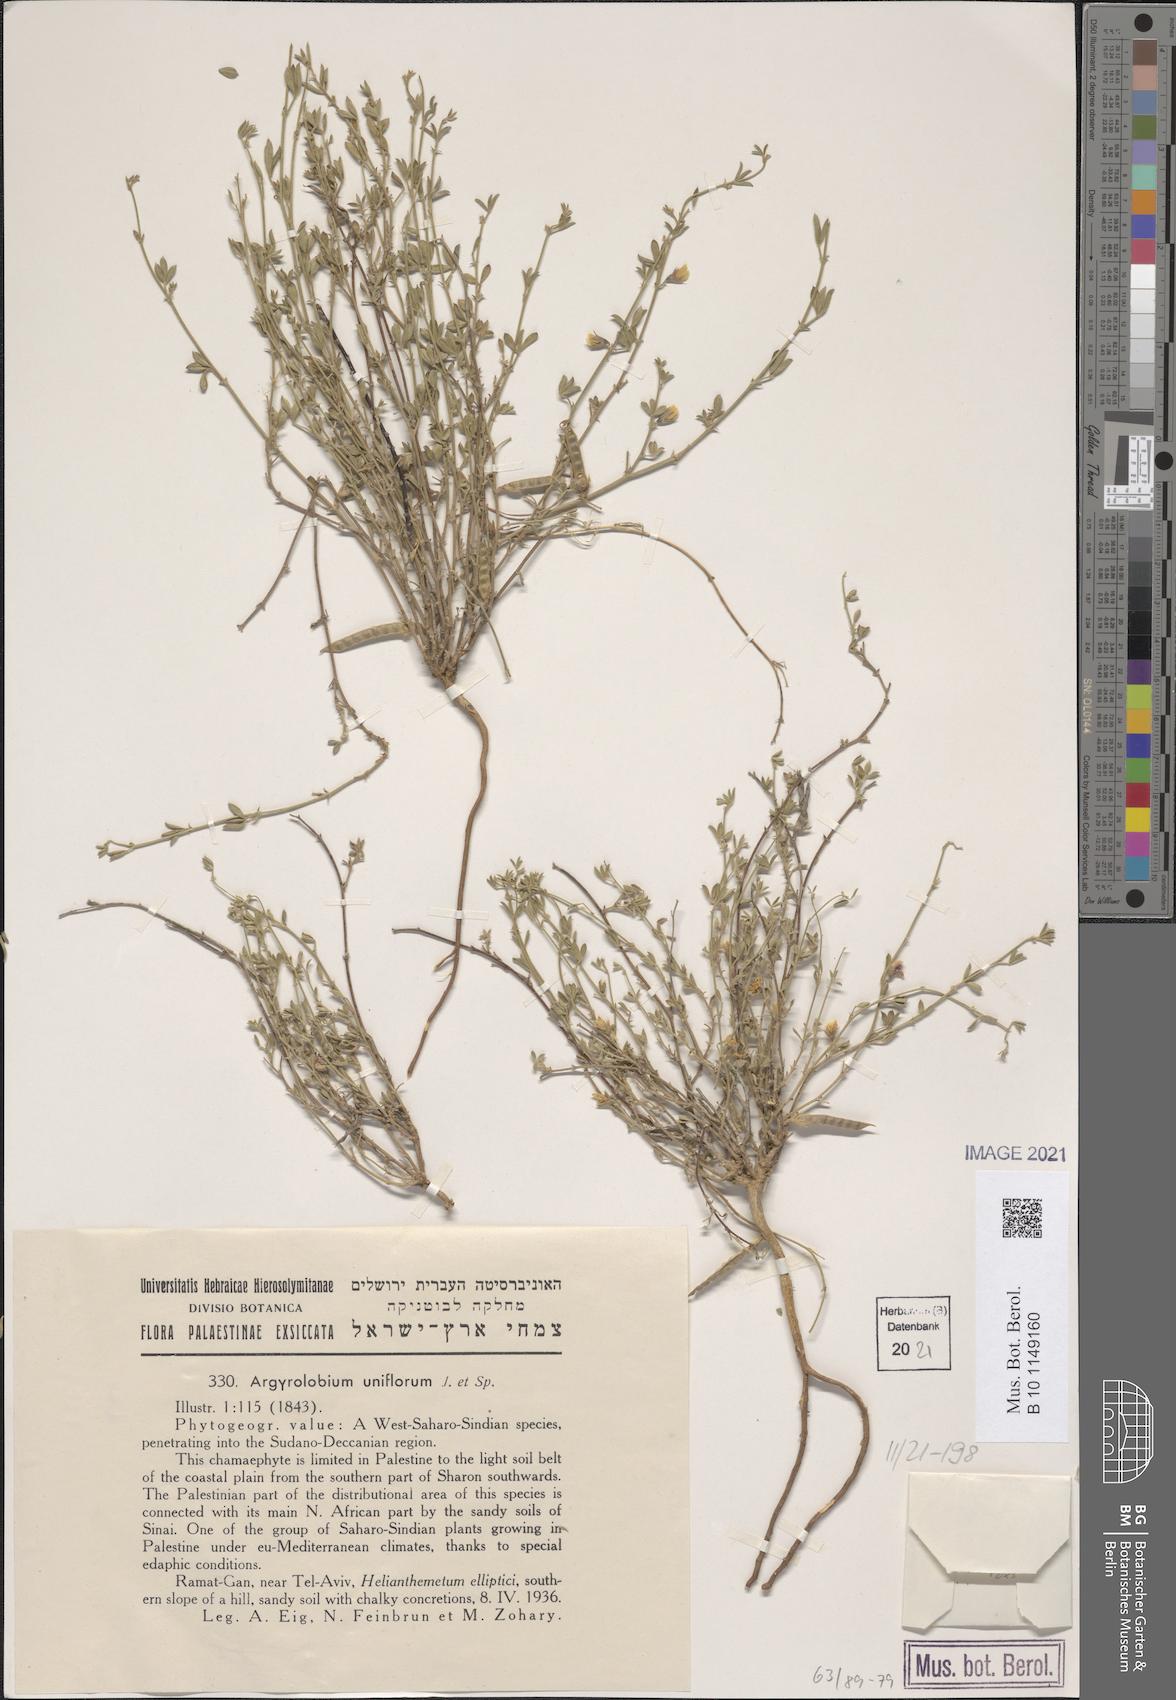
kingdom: Plantae
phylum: Tracheophyta
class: Magnoliopsida
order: Fabales
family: Fabaceae
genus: Argyrolobium
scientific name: Argyrolobium uniflorum
